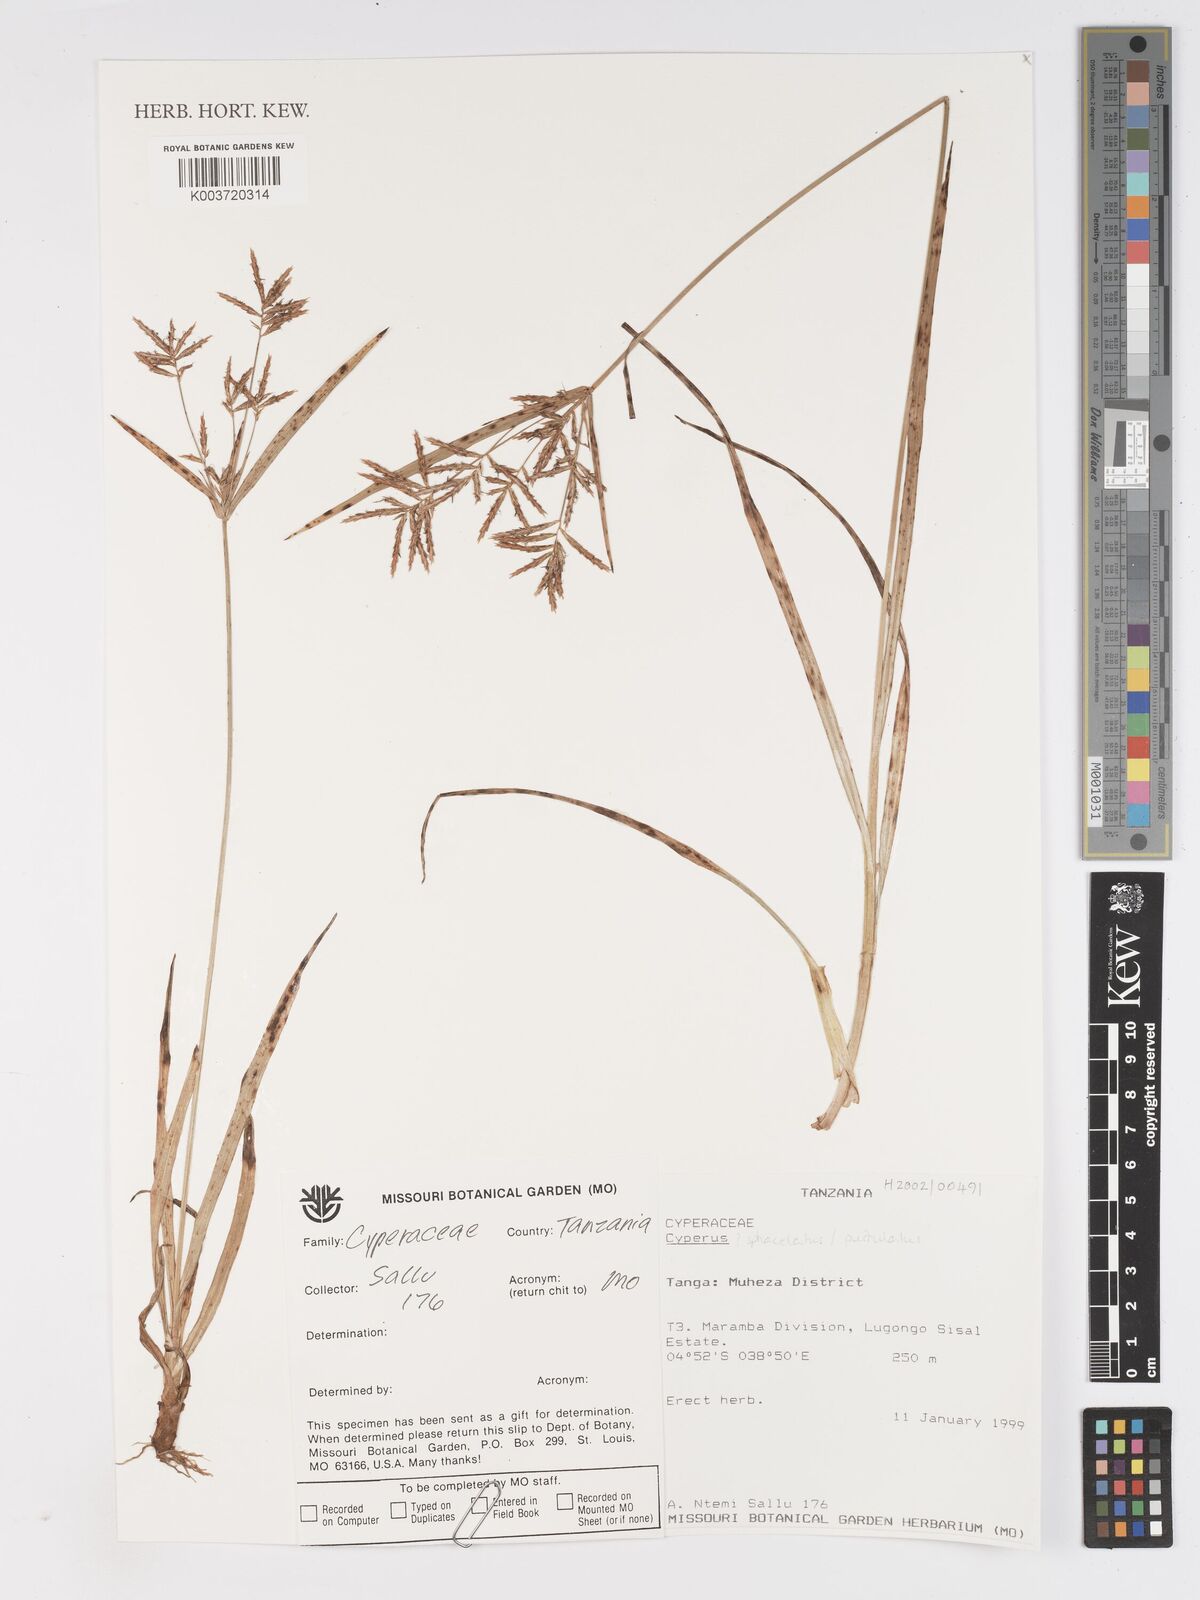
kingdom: Plantae
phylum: Tracheophyta
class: Liliopsida
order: Poales
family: Cyperaceae
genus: Cyperus
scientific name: Cyperus
